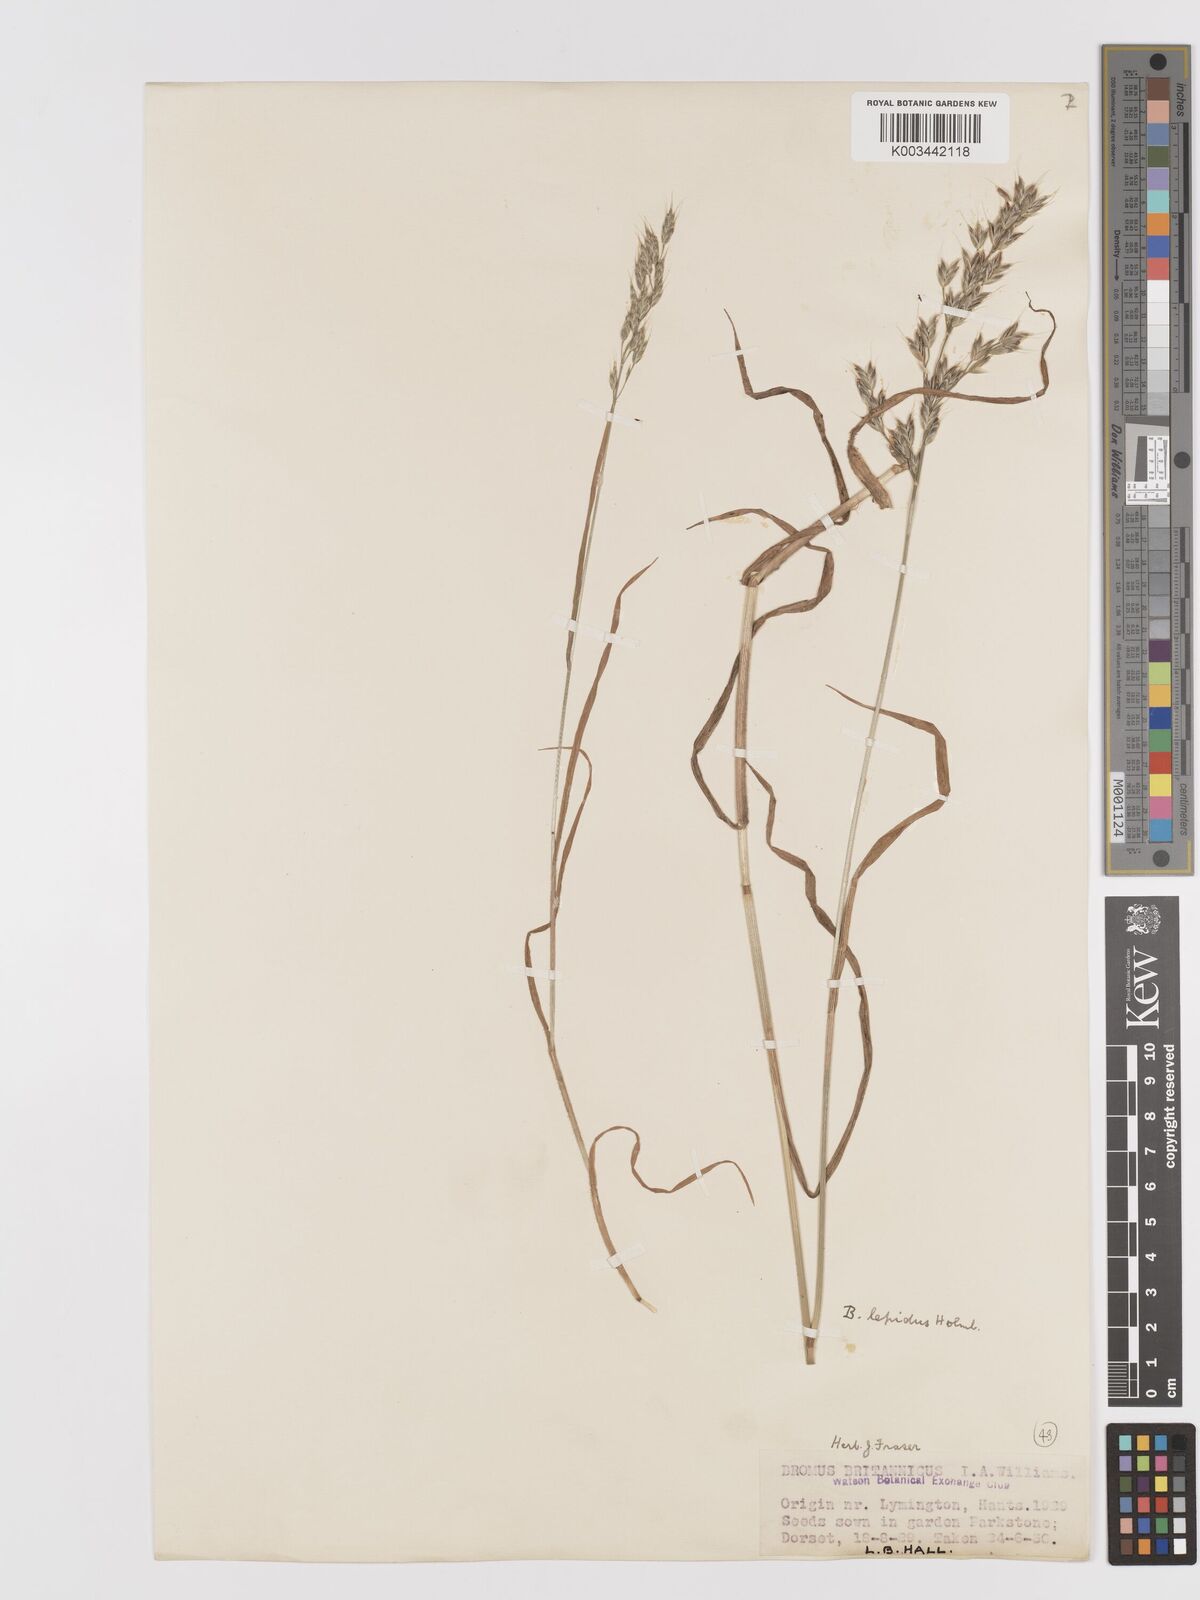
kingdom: Plantae
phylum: Tracheophyta
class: Liliopsida
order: Poales
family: Poaceae
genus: Bromus
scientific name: Bromus lepidus
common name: Slender soft-brome
